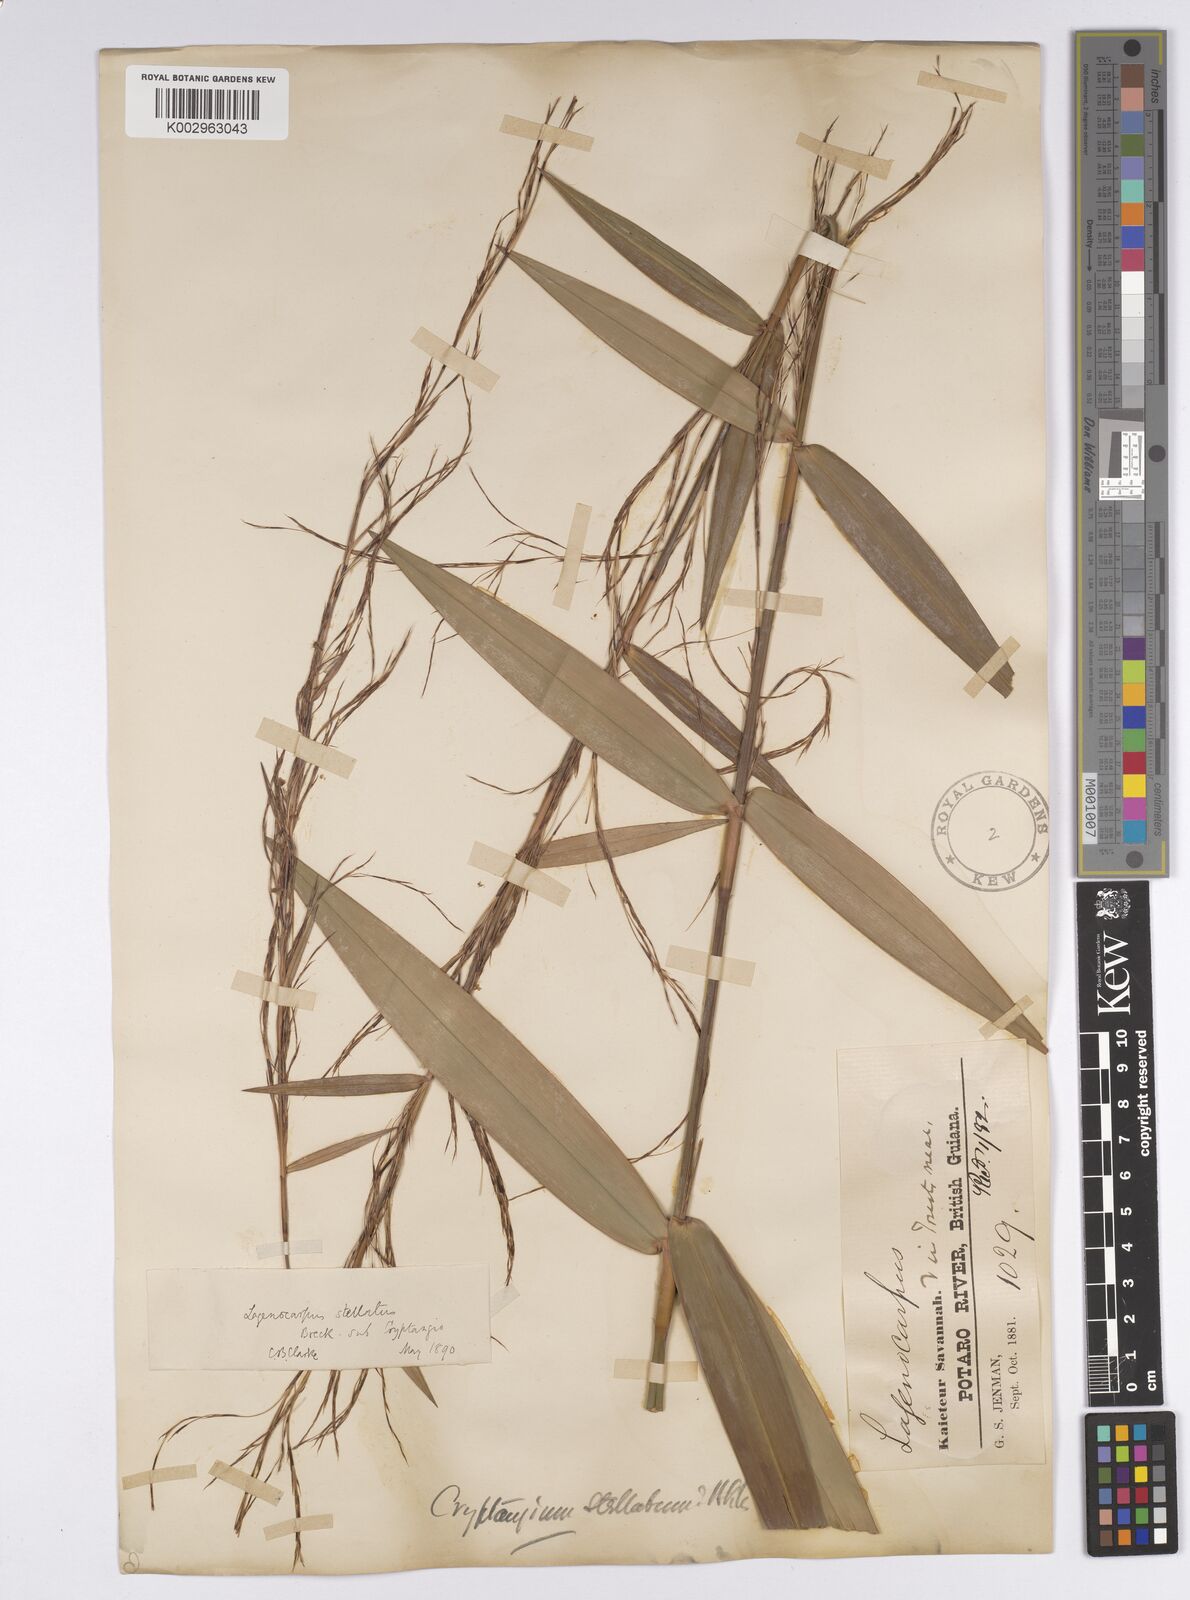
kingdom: Plantae
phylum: Tracheophyta
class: Liliopsida
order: Poales
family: Cyperaceae
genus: Didymiandrum
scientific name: Didymiandrum stellatum
